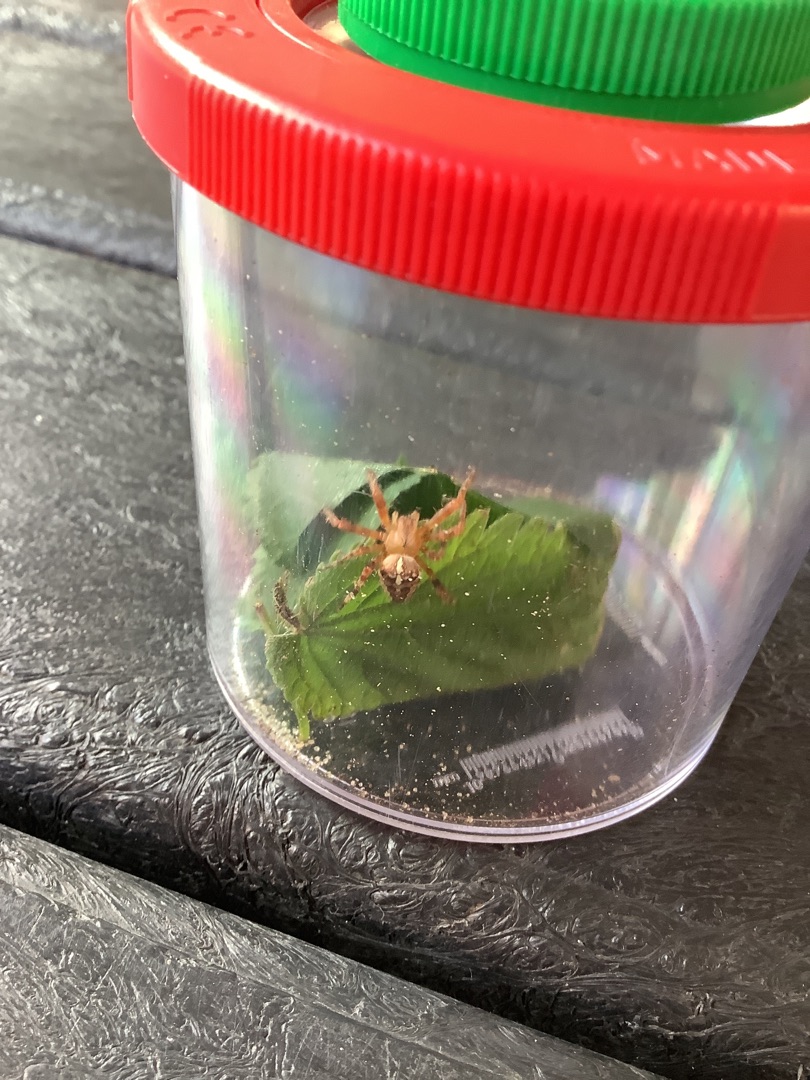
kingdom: Animalia
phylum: Arthropoda
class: Arachnida
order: Araneae
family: Araneidae
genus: Araneus
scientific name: Araneus diadematus
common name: Korsedderkop
